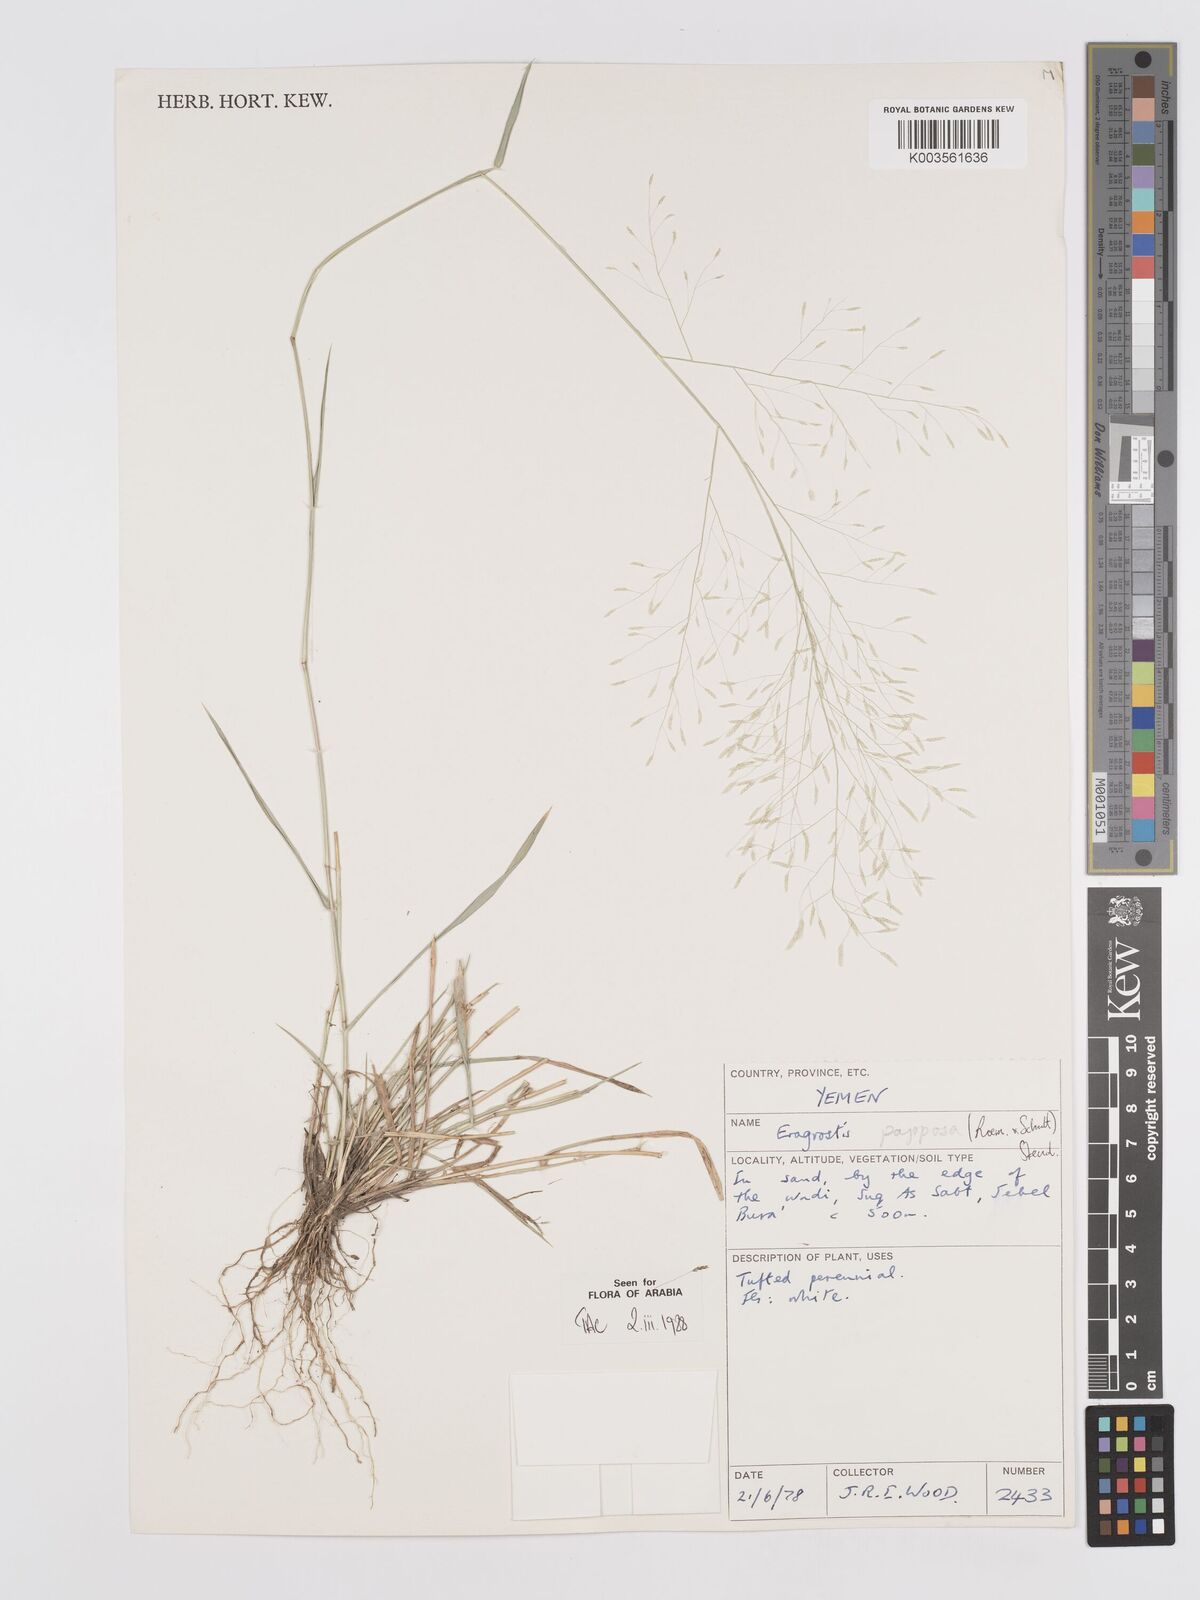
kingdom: Plantae
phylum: Tracheophyta
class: Liliopsida
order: Poales
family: Poaceae
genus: Eragrostis
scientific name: Eragrostis papposa
